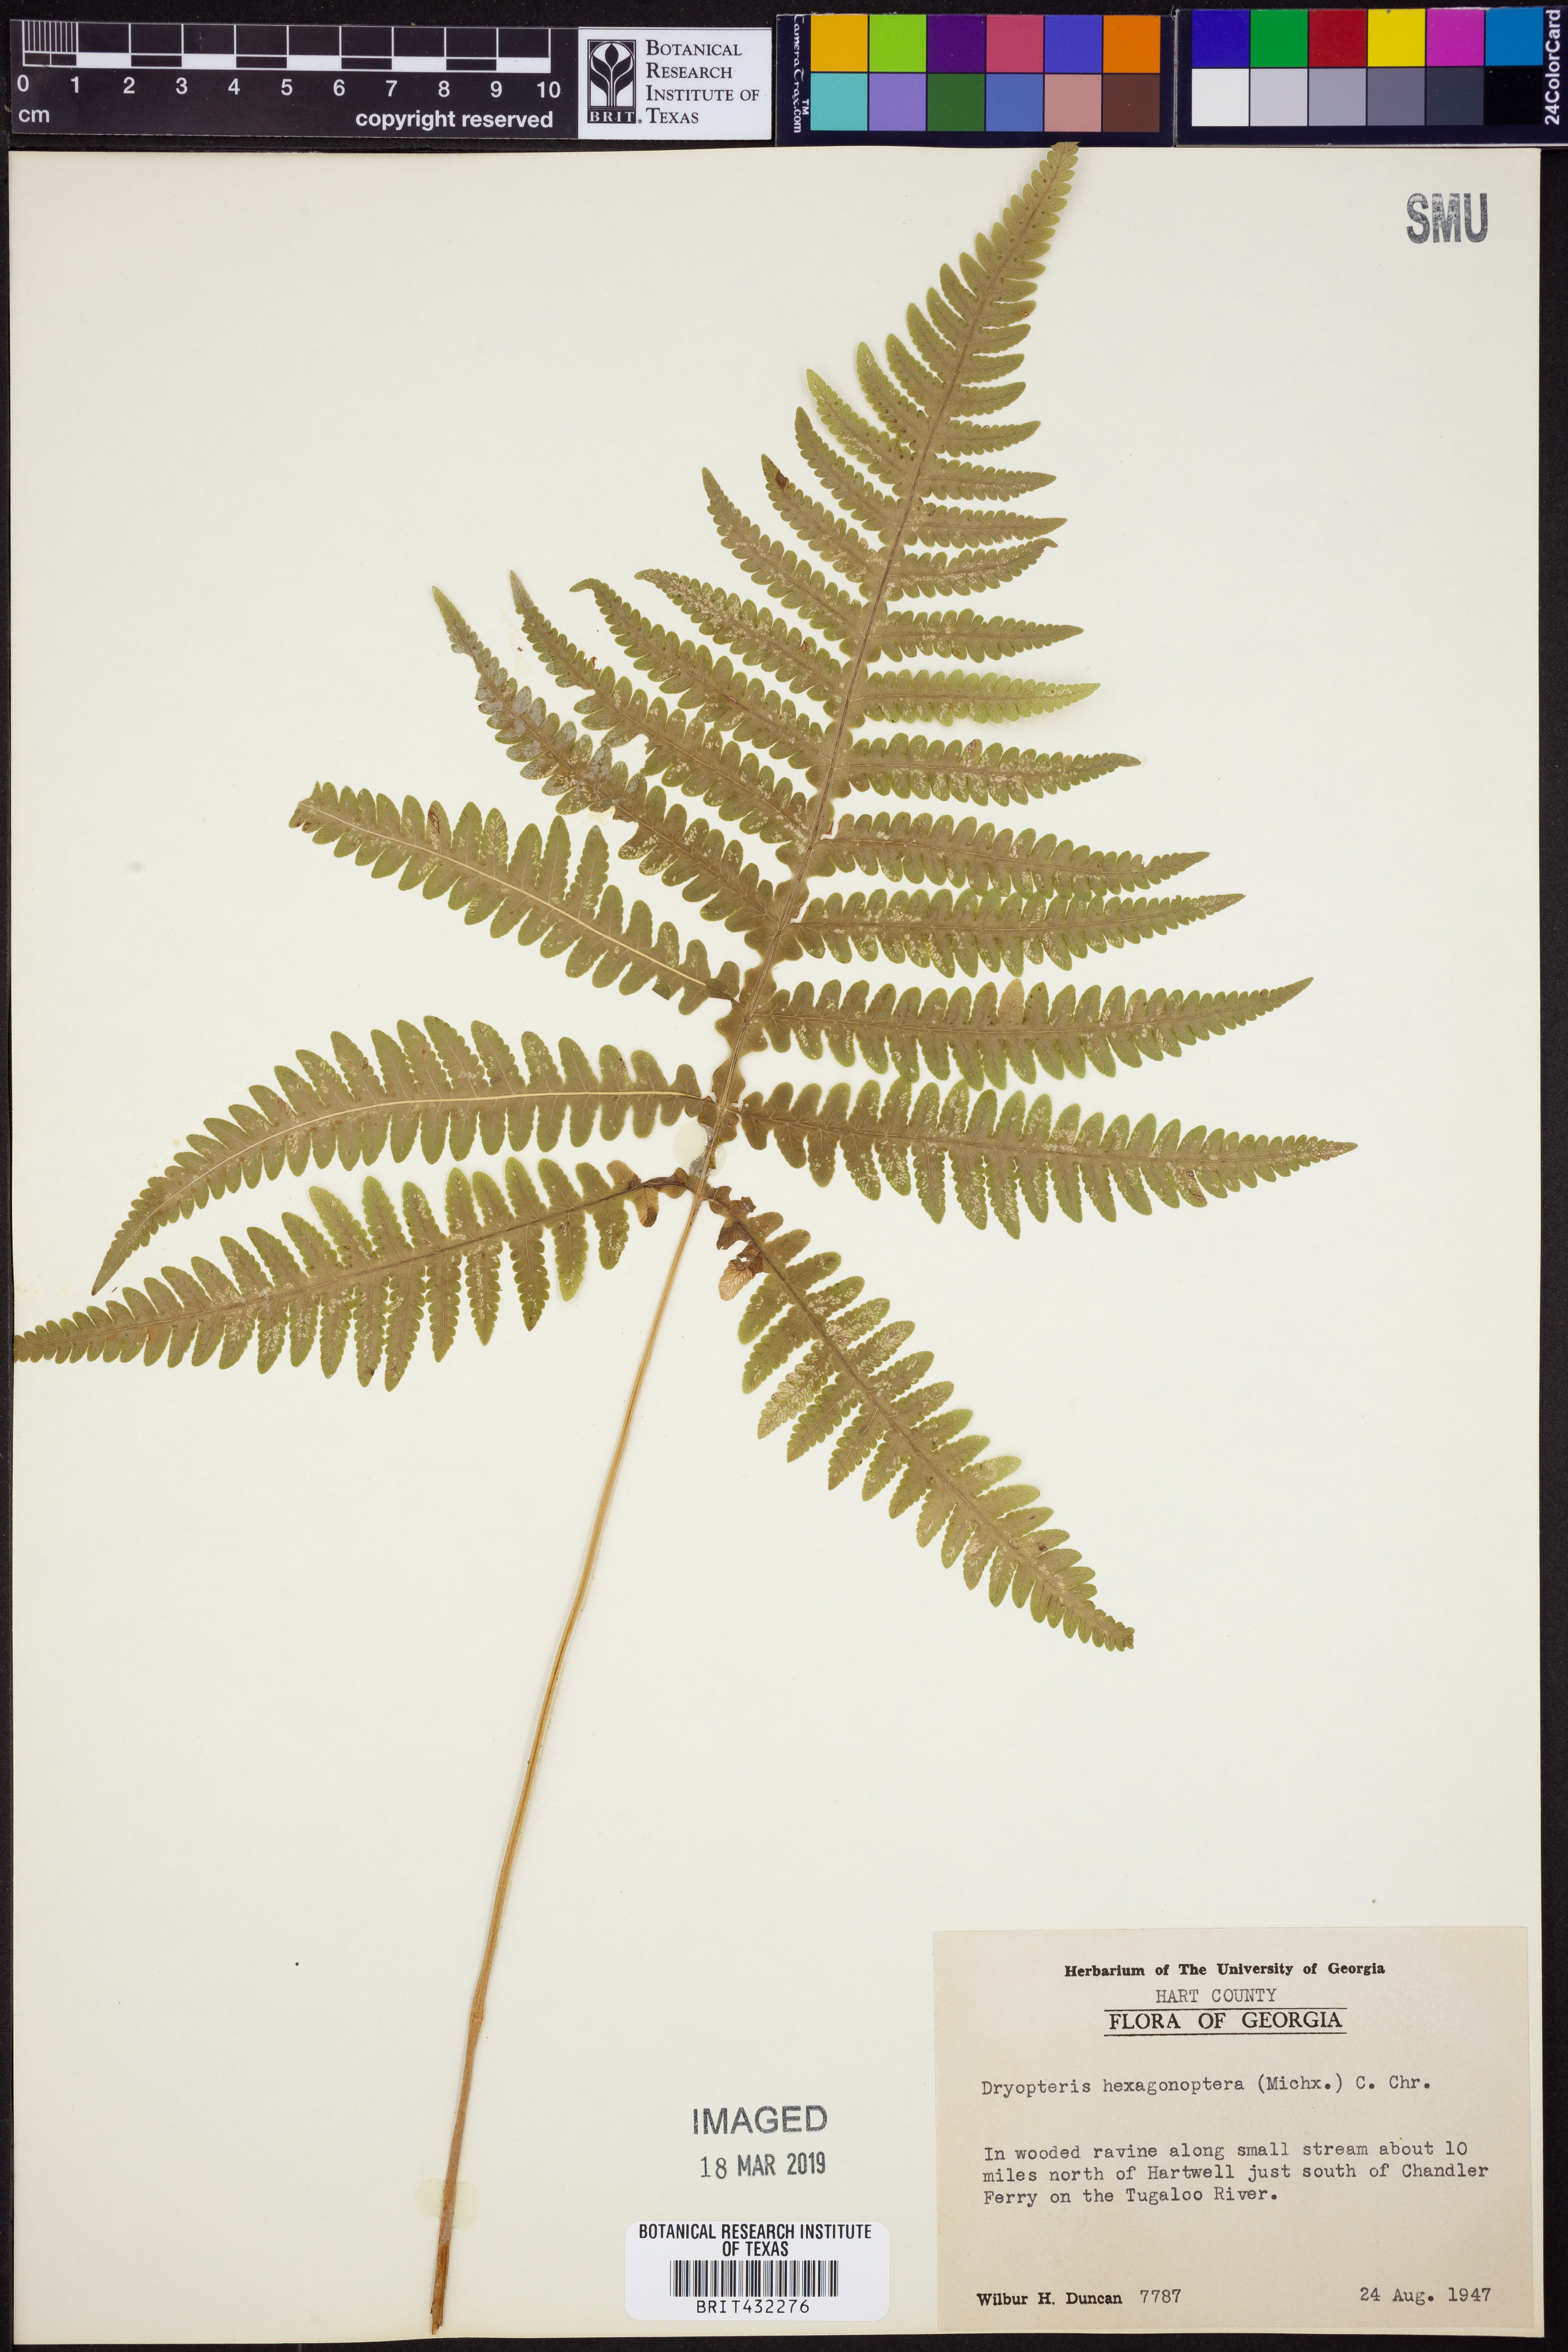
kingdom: Plantae
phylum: Tracheophyta
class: Polypodiopsida
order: Polypodiales
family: Dryopteridaceae
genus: Dryopteris
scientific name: Dryopteris hexagonaptera
